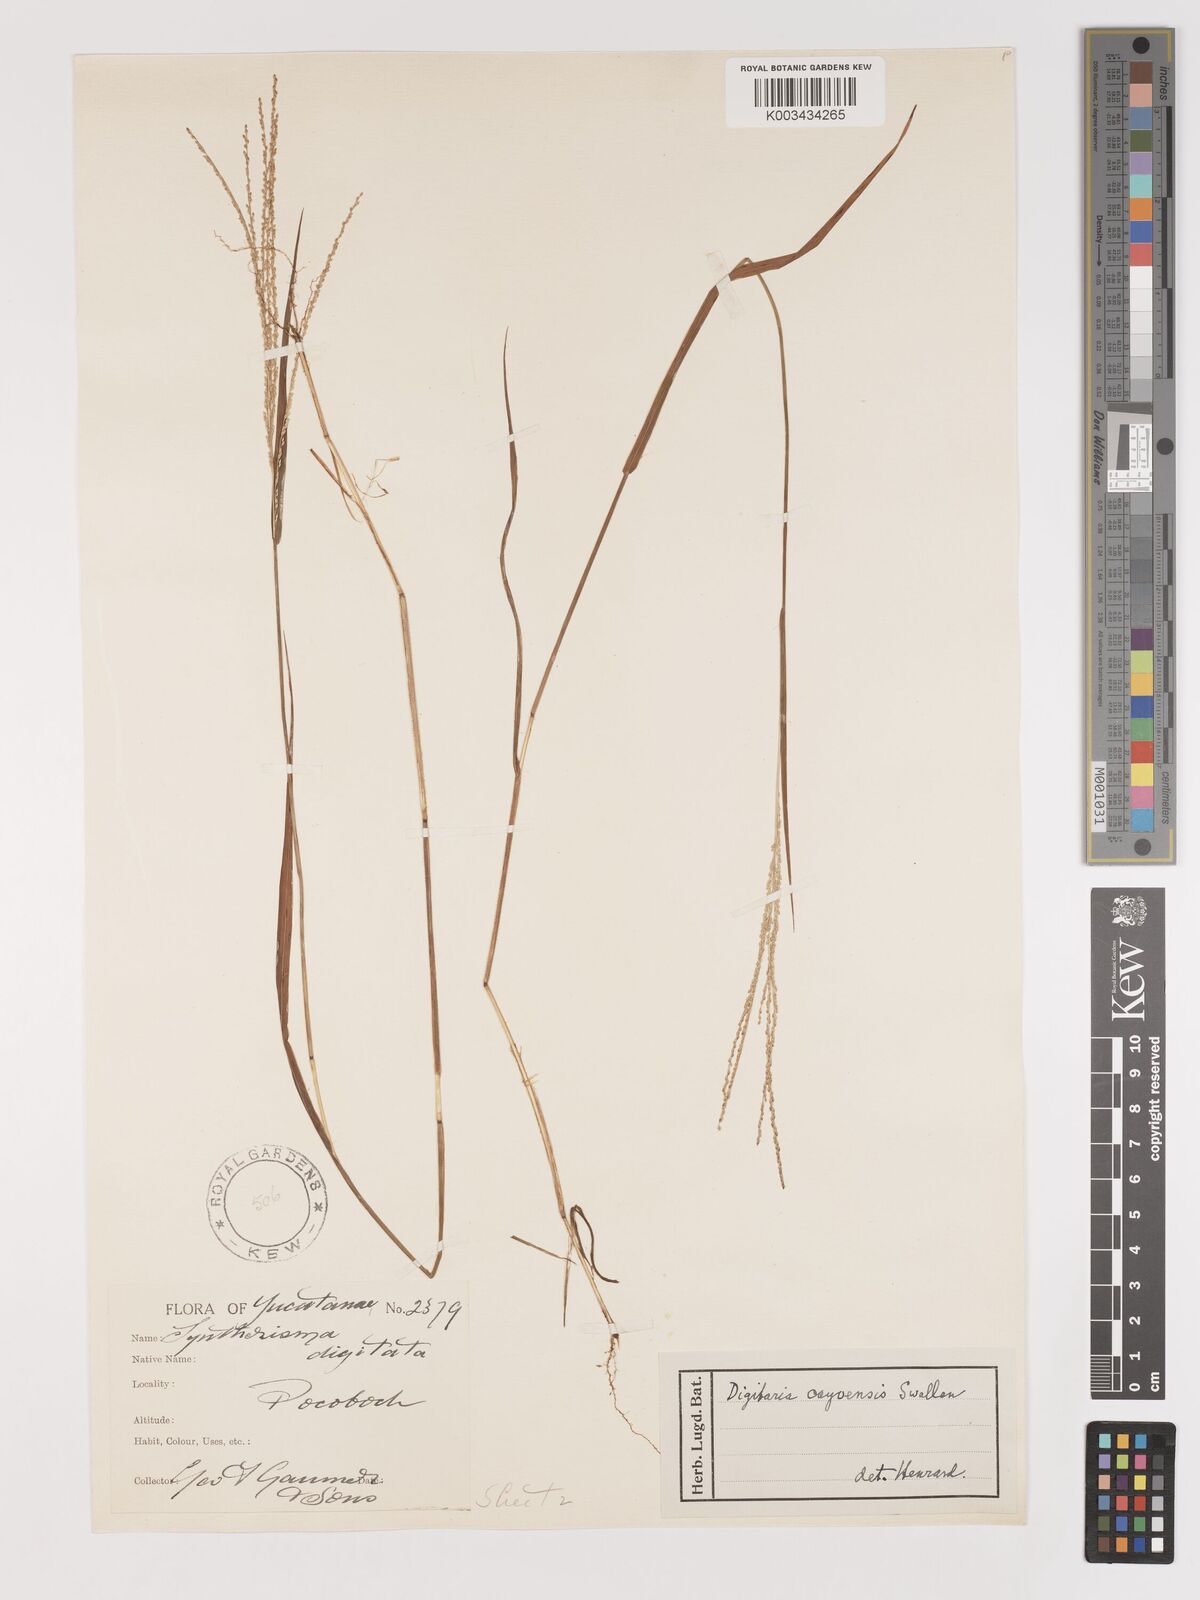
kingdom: Plantae
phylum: Tracheophyta
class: Liliopsida
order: Poales
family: Poaceae
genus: Digitaria
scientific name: Digitaria cayoensis
